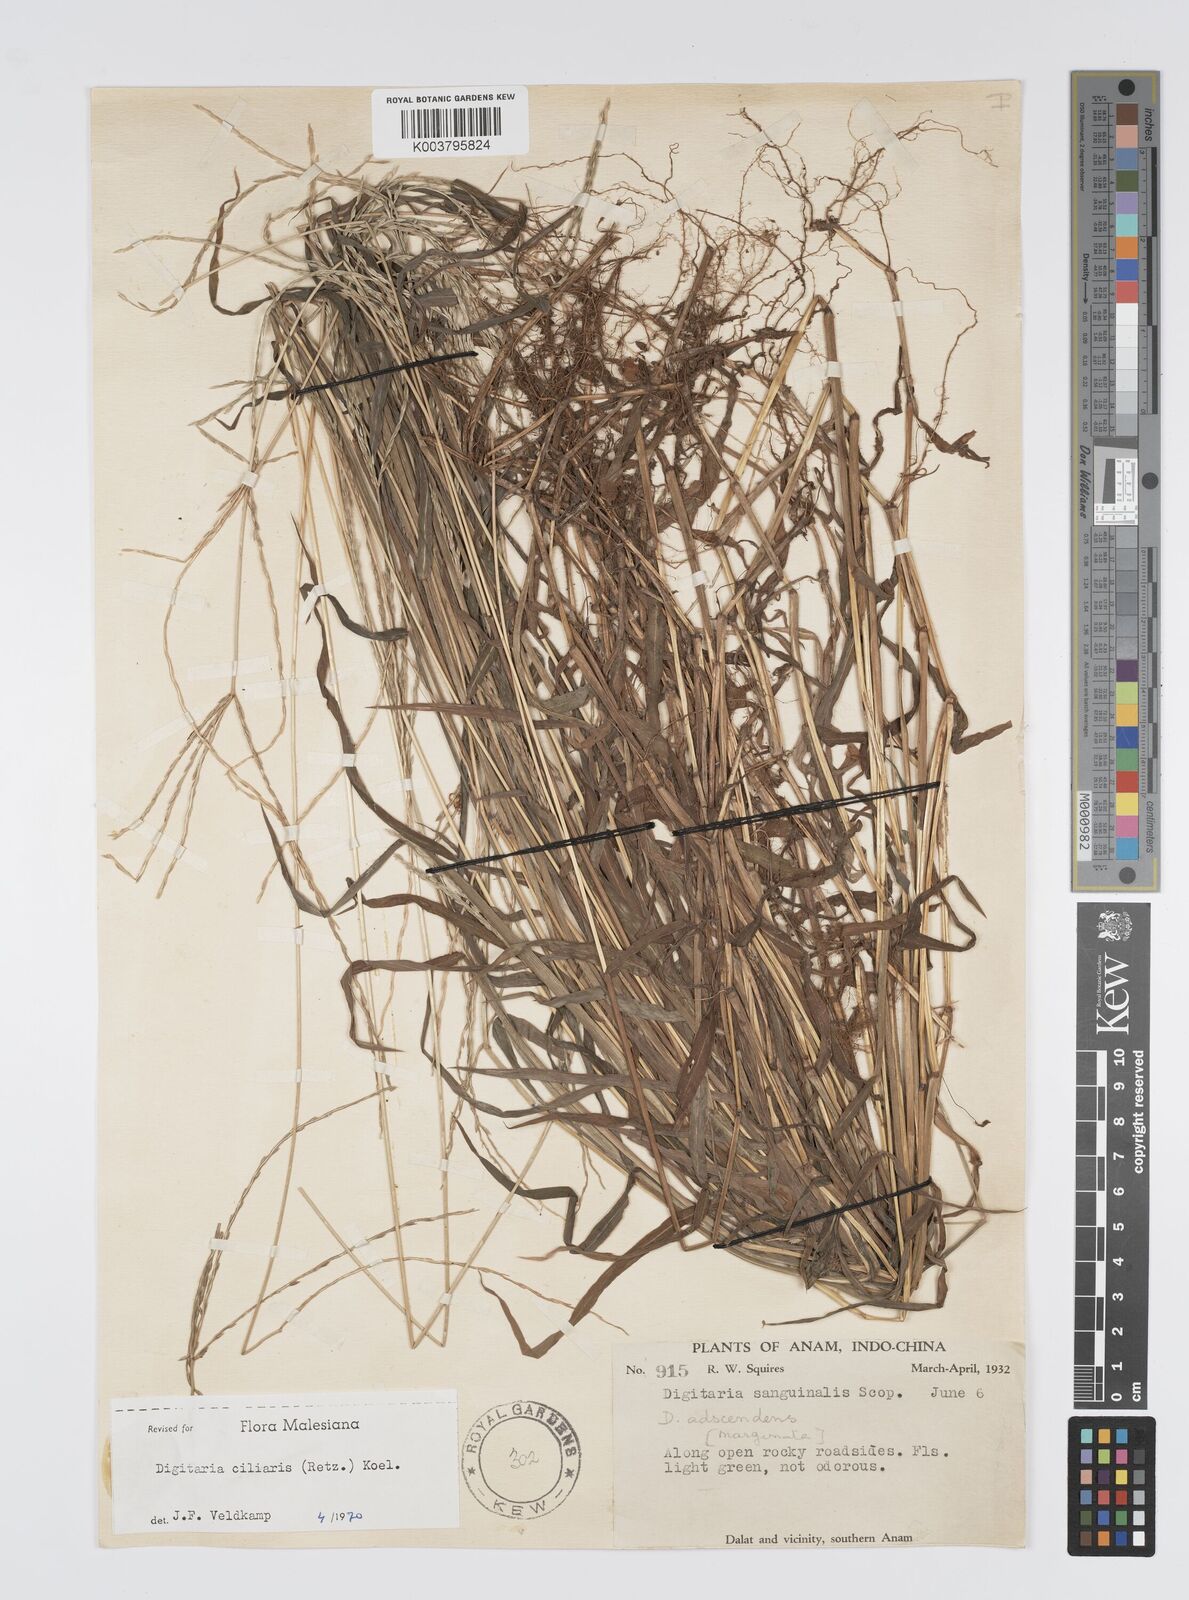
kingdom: Plantae
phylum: Tracheophyta
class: Liliopsida
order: Poales
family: Poaceae
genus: Digitaria
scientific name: Digitaria ciliaris
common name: Tropical finger-grass
